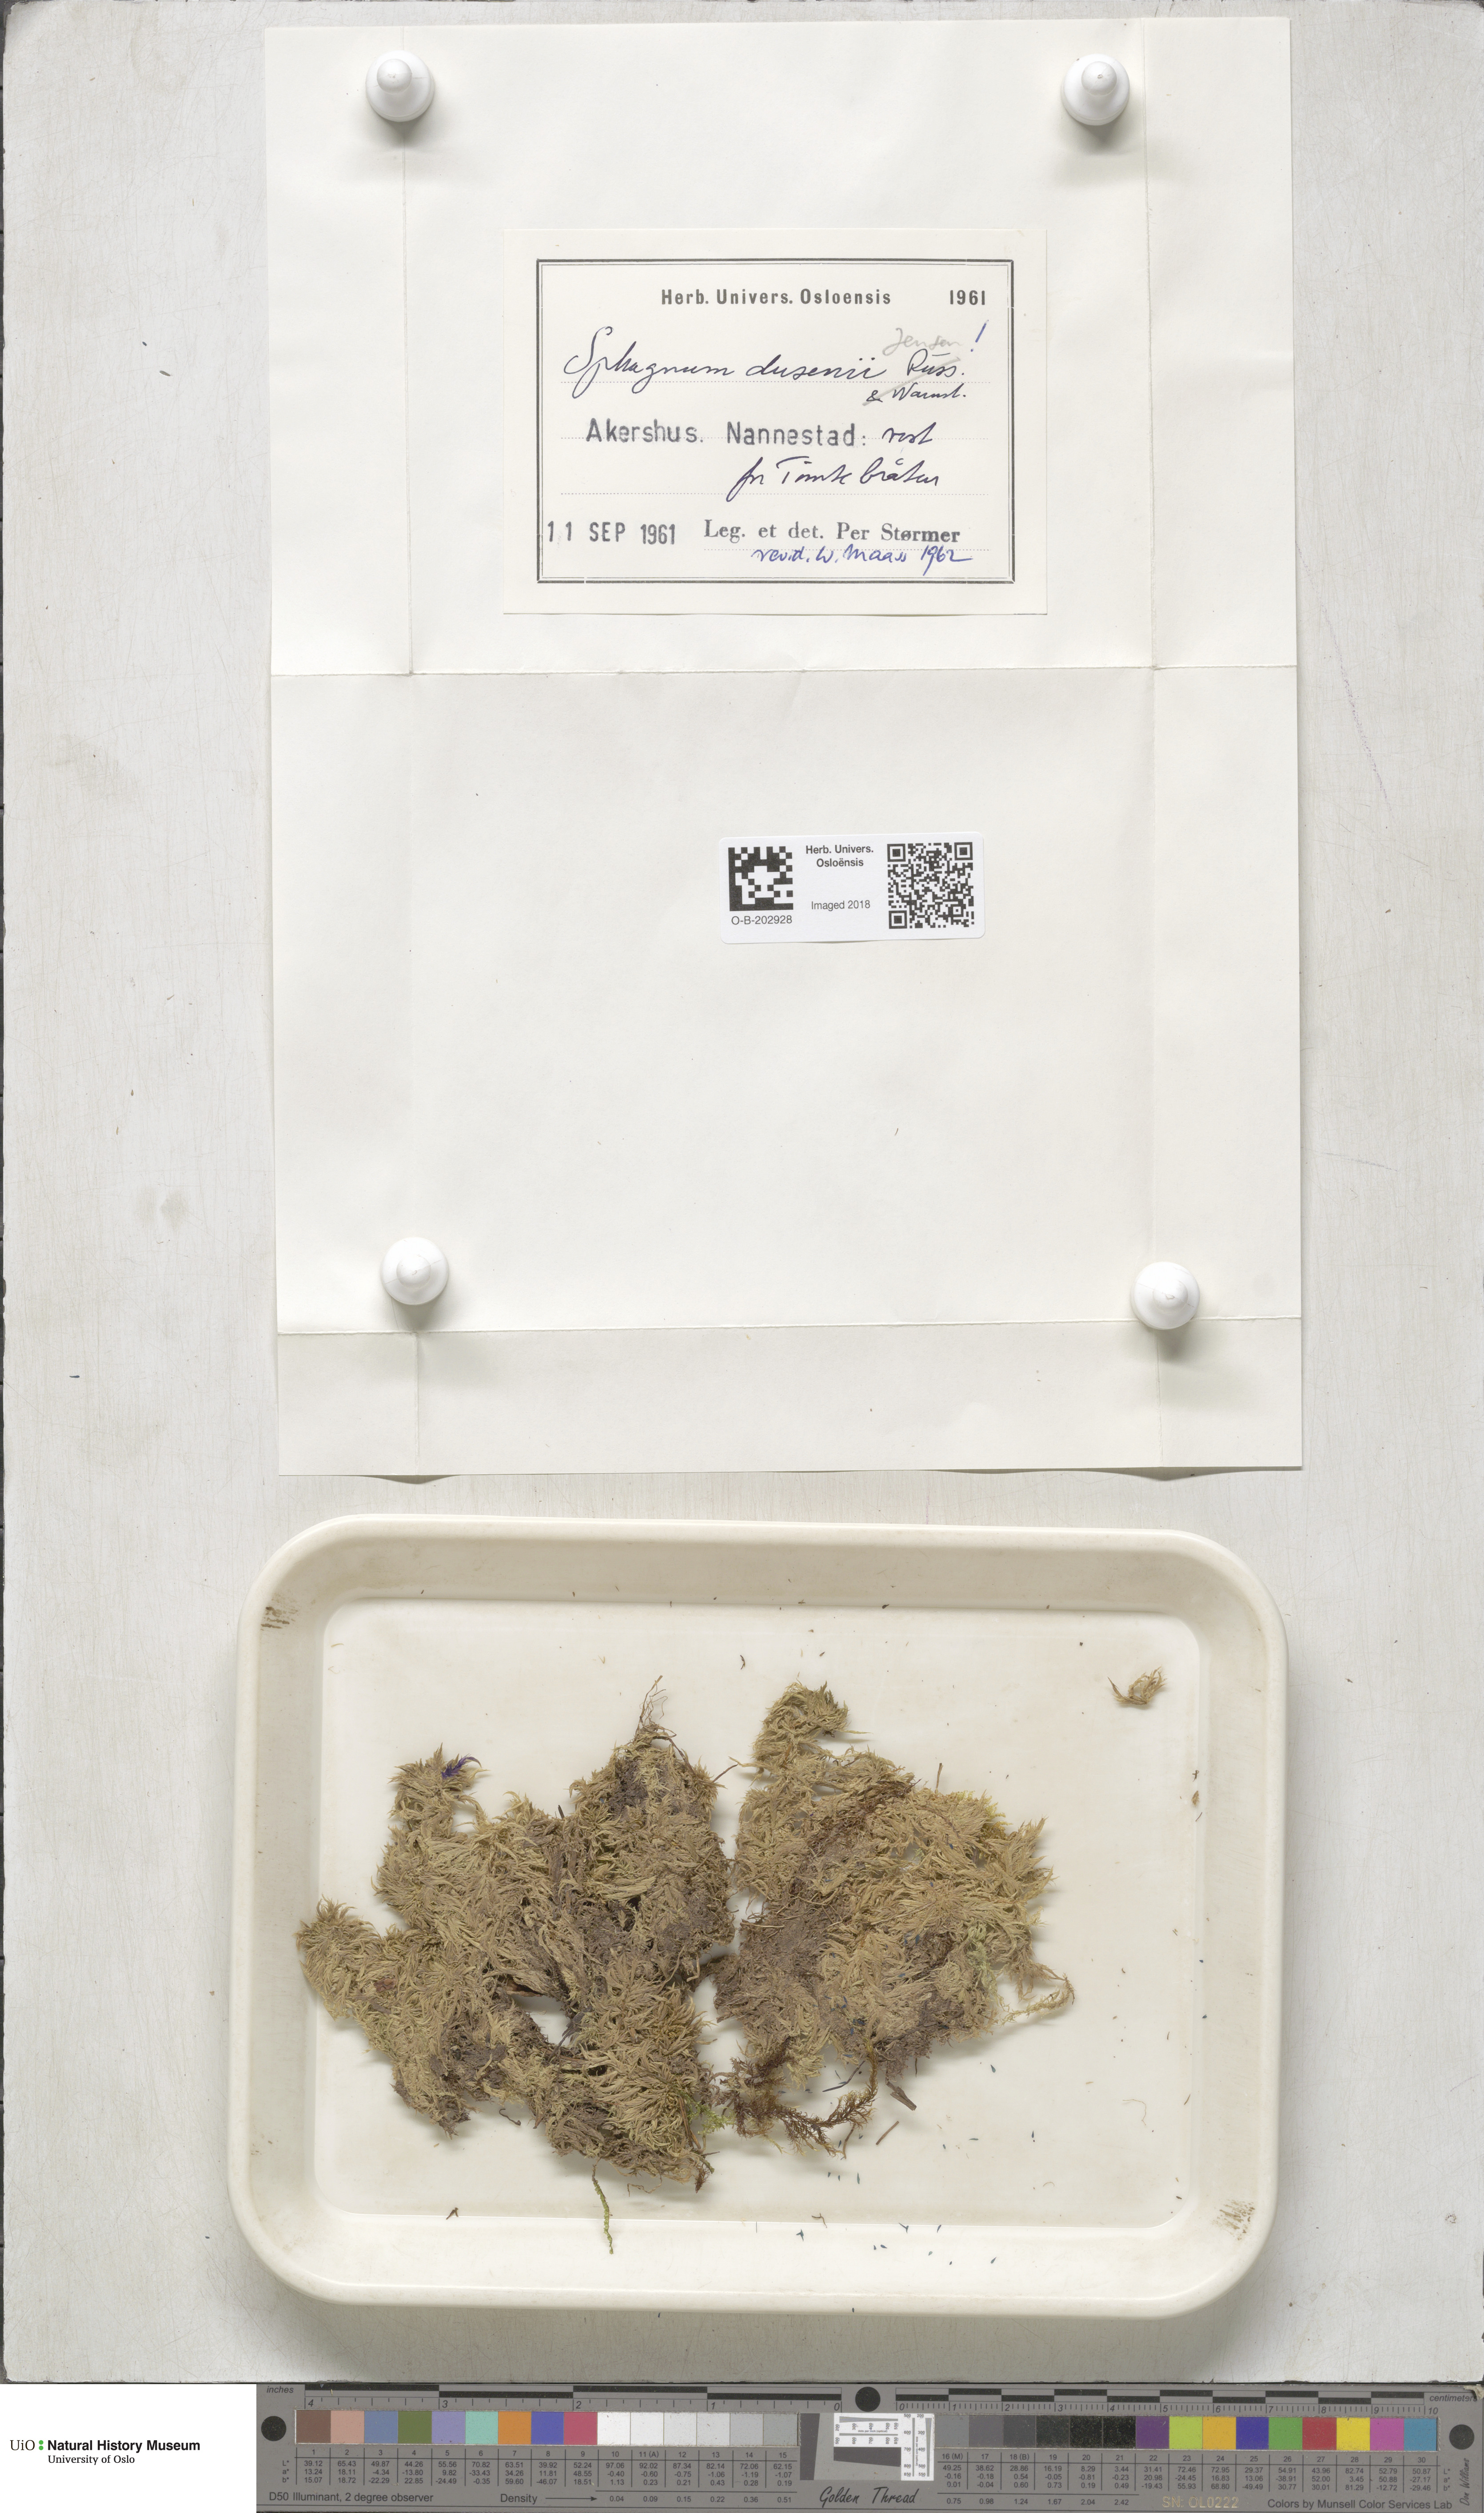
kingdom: Plantae
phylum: Bryophyta
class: Sphagnopsida
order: Sphagnales
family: Sphagnaceae
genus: Sphagnum
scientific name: Sphagnum majus
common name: Olive bog-moss
